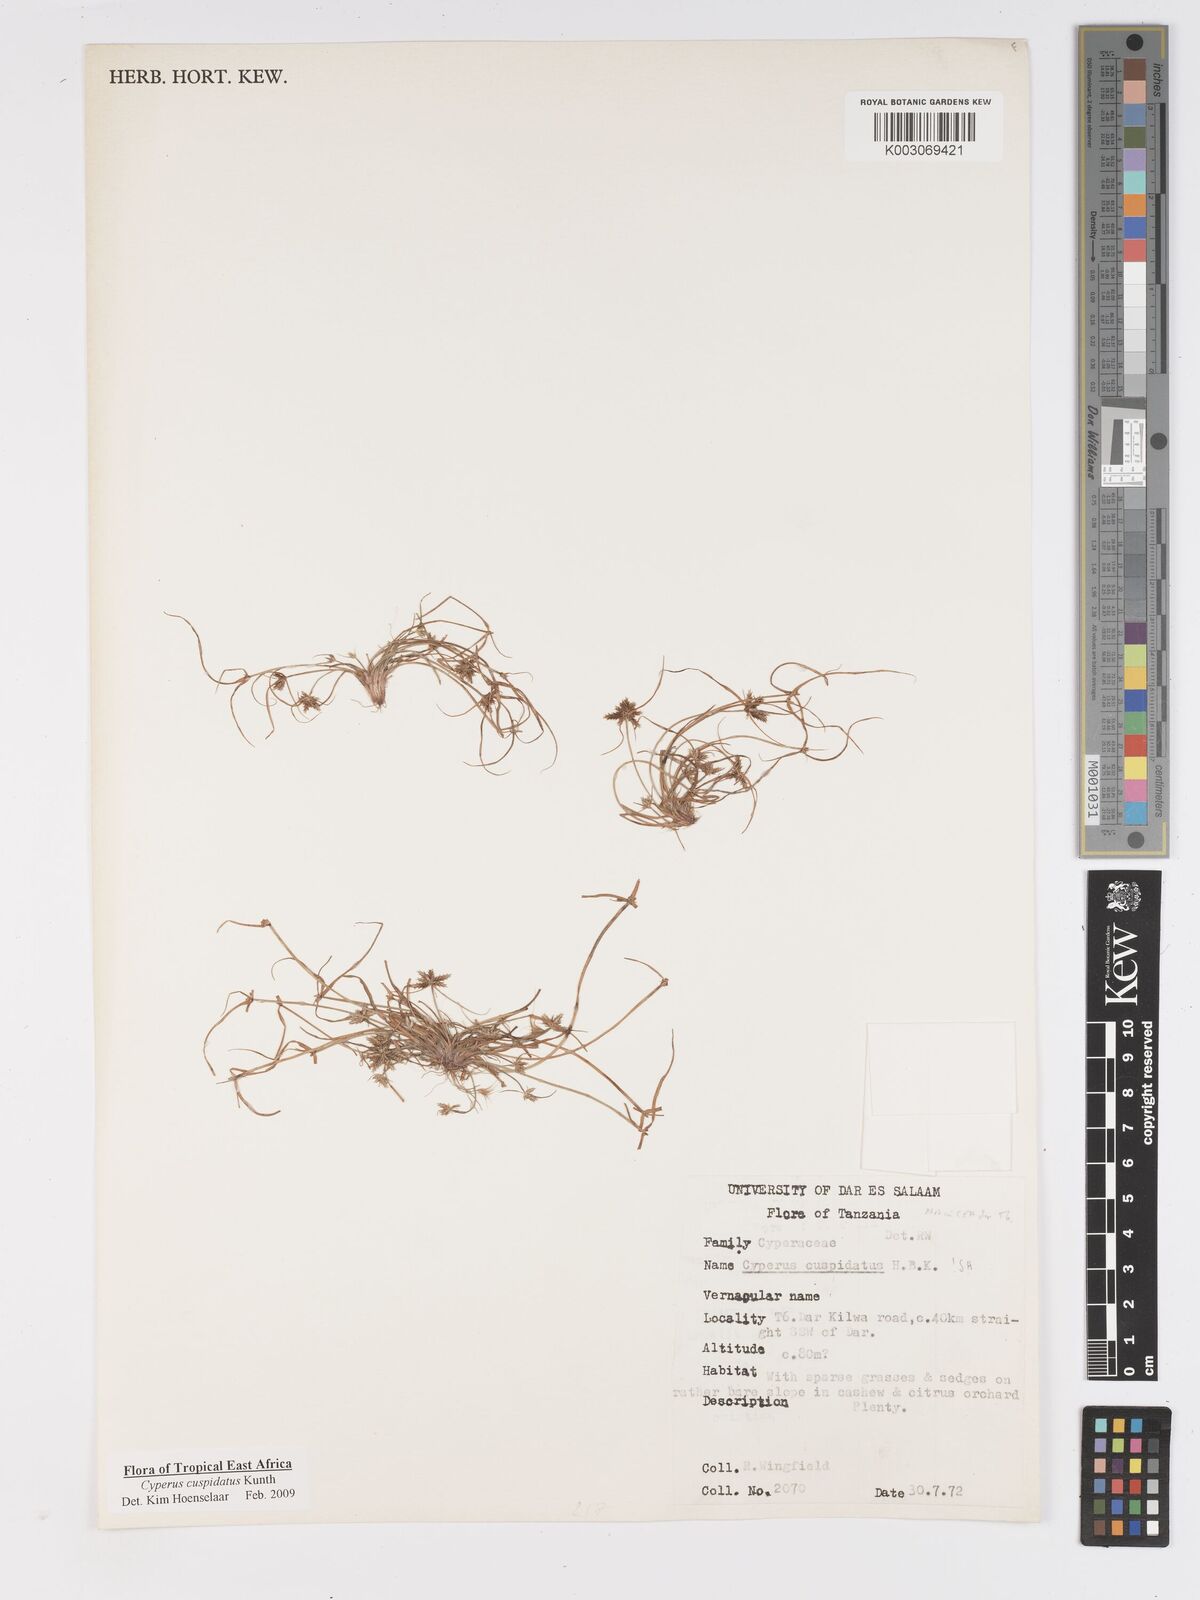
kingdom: Plantae
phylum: Tracheophyta
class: Liliopsida
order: Poales
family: Cyperaceae
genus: Cyperus
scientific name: Cyperus cuspidatus
